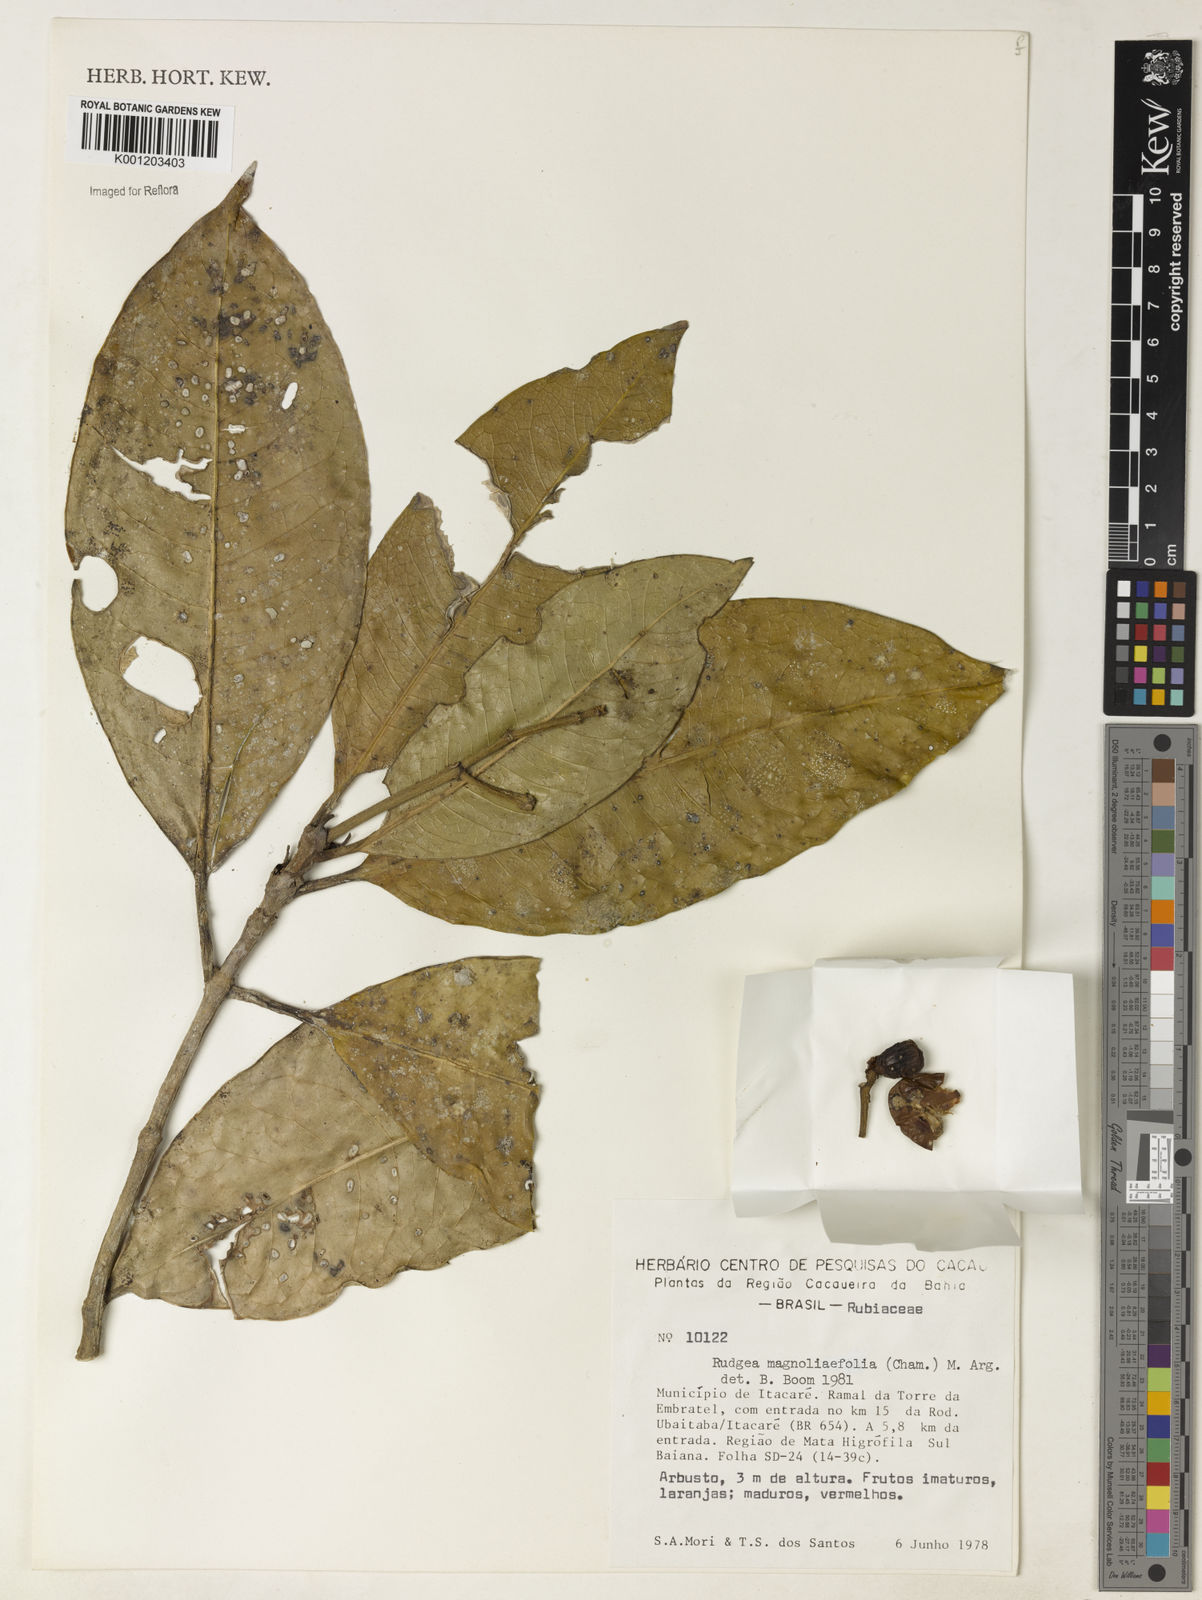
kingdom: Plantae
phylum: Tracheophyta
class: Magnoliopsida
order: Gentianales
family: Rubiaceae
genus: Rudgea
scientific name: Rudgea coriacea
